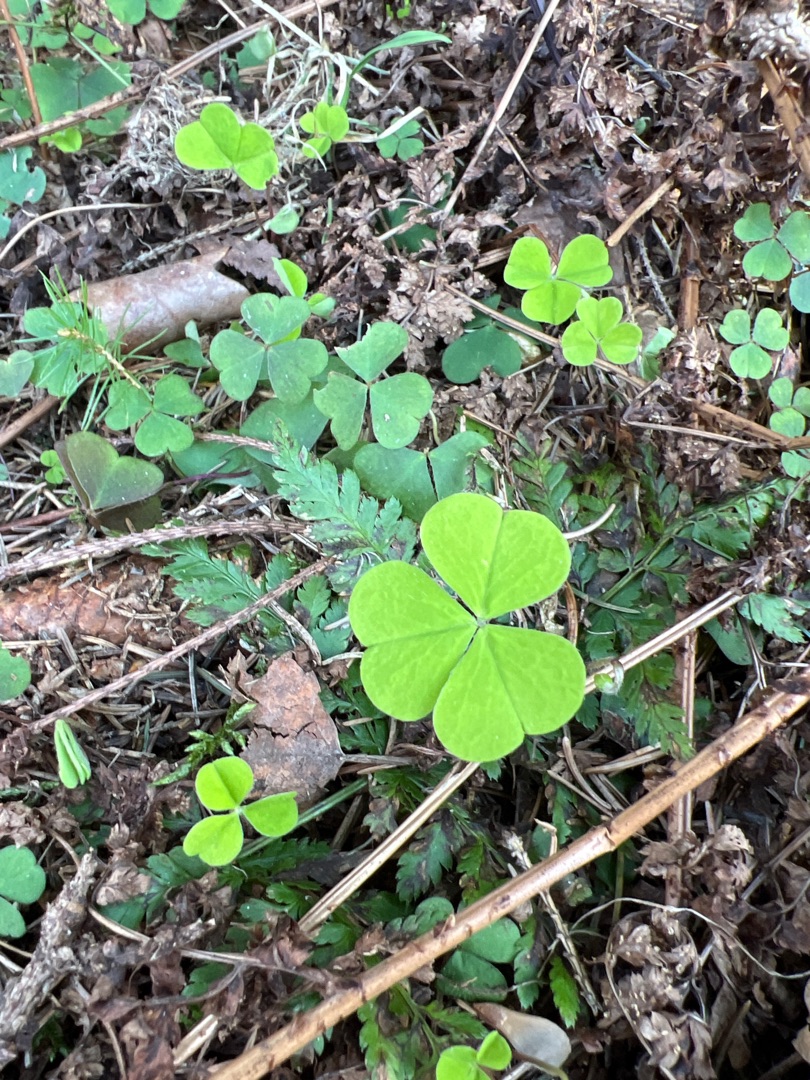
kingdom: Plantae
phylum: Tracheophyta
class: Magnoliopsida
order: Oxalidales
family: Oxalidaceae
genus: Oxalis
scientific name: Oxalis acetosella
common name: Skovsyre
